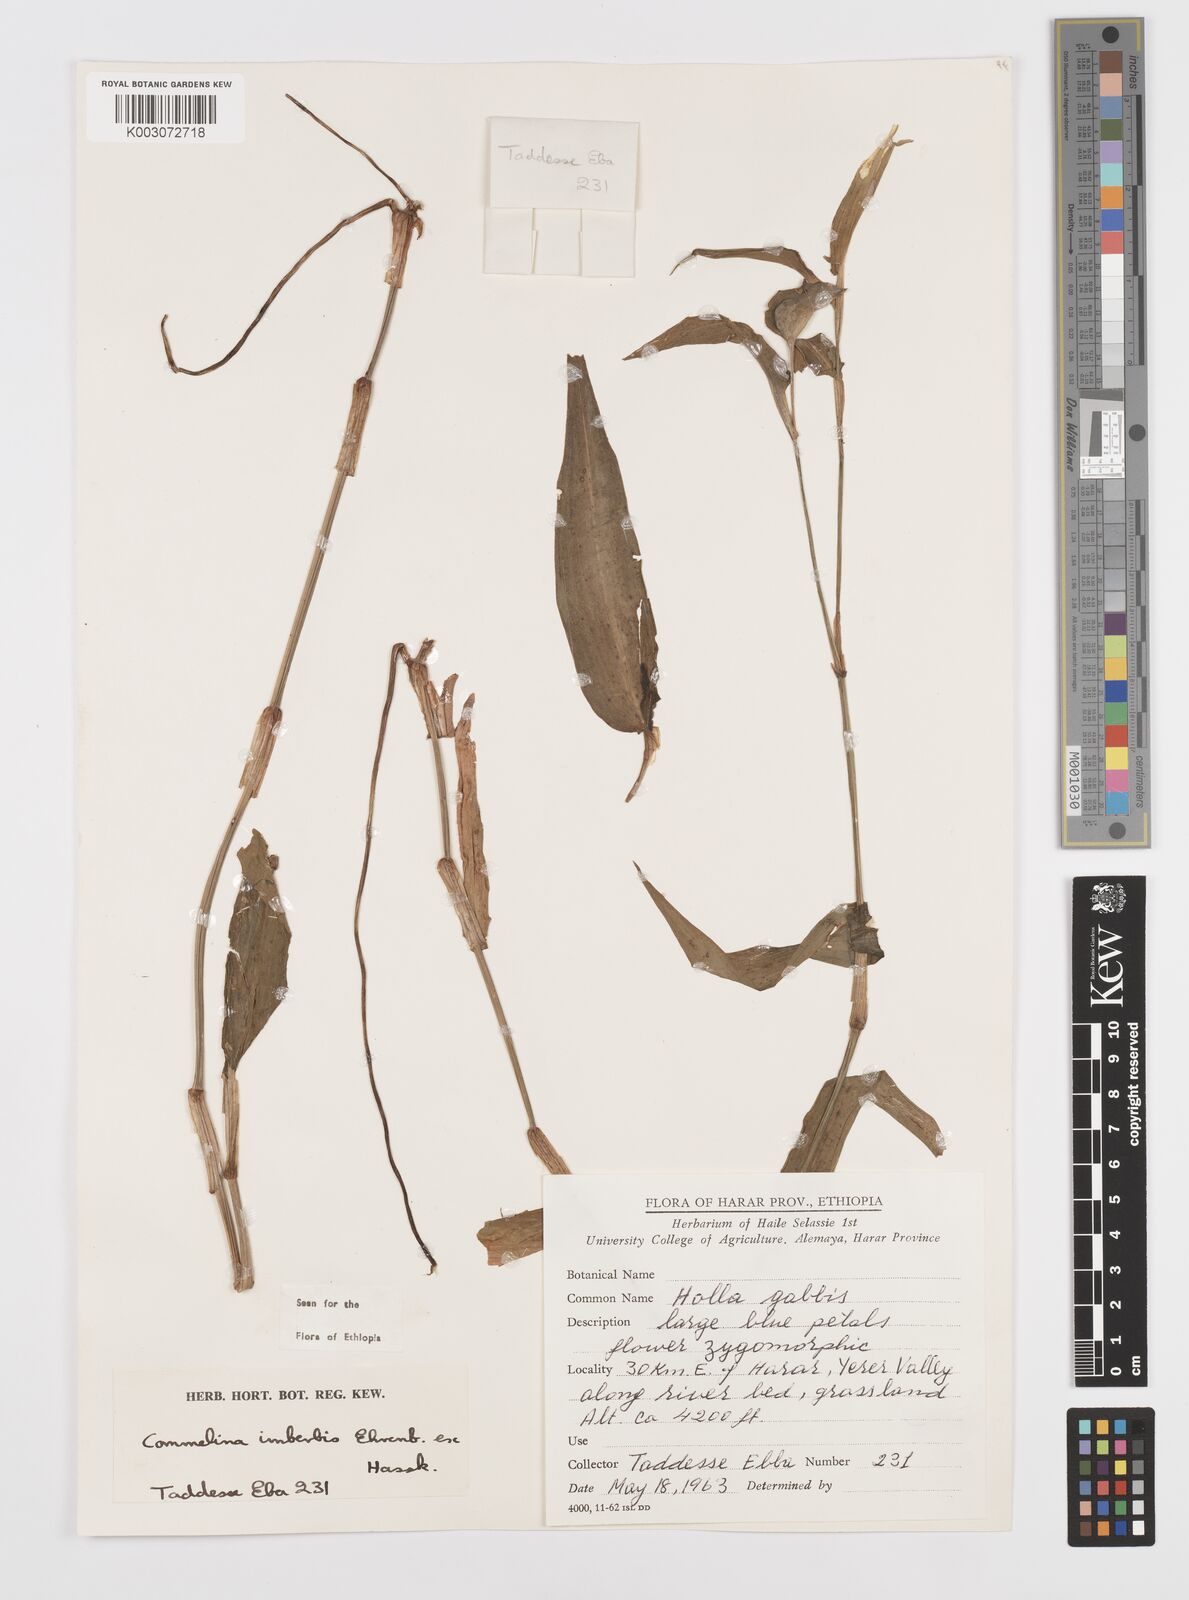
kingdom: Plantae
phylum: Tracheophyta
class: Liliopsida
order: Commelinales
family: Commelinaceae
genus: Commelina
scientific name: Commelina imberbis
